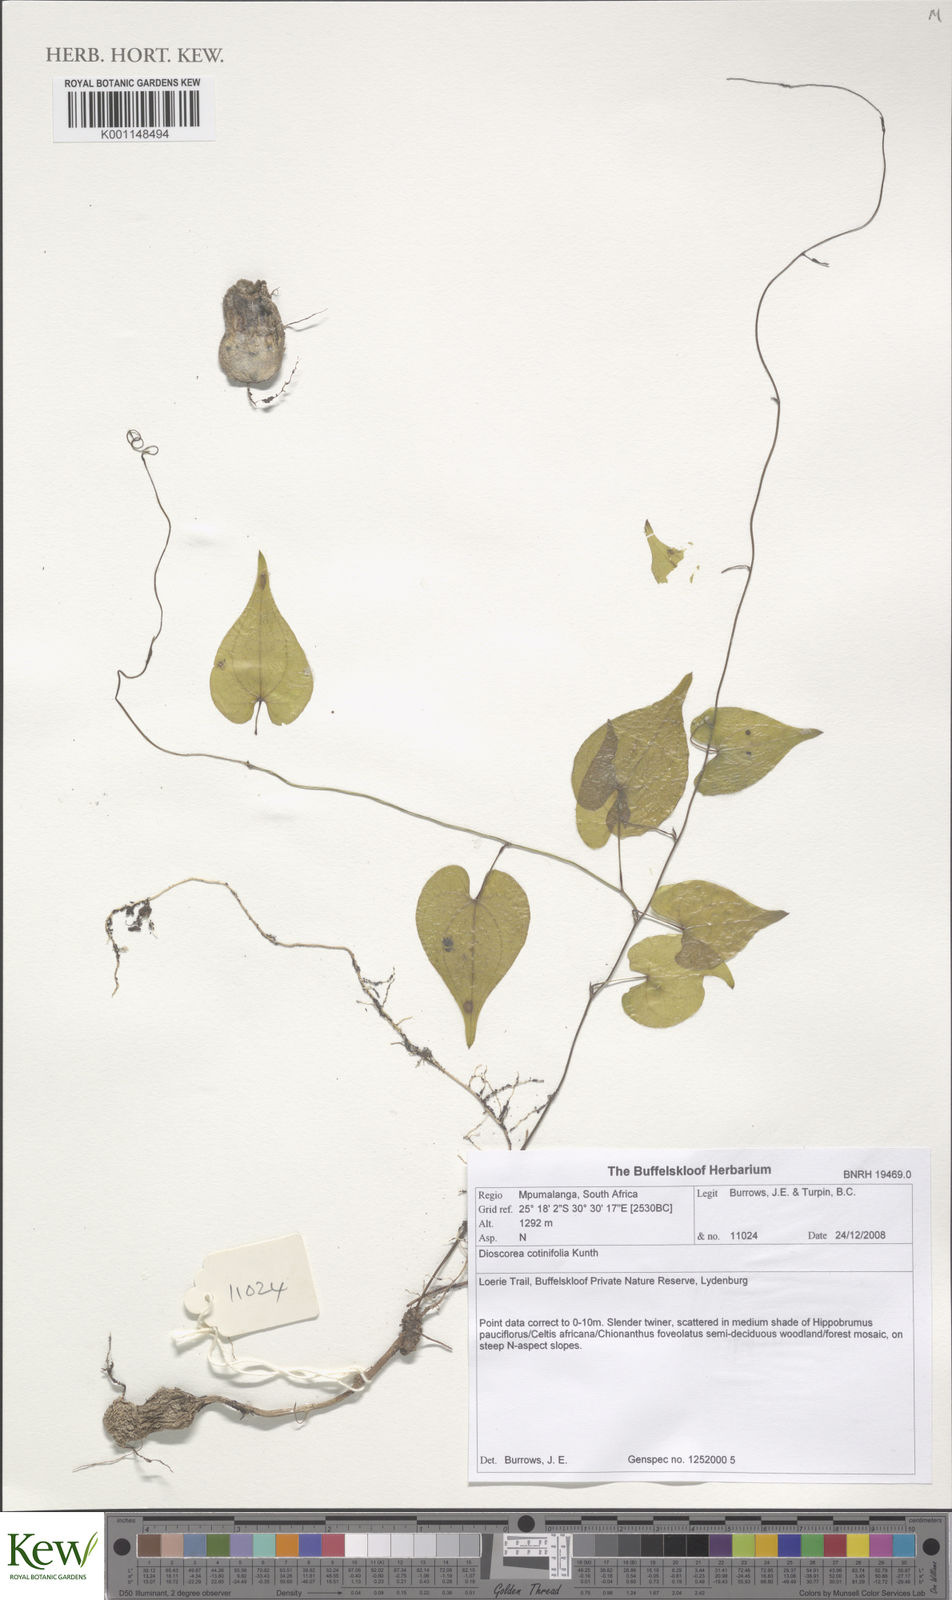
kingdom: Plantae
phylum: Tracheophyta
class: Liliopsida
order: Dioscoreales
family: Dioscoreaceae
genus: Dioscorea
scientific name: Dioscorea cotinifolia
